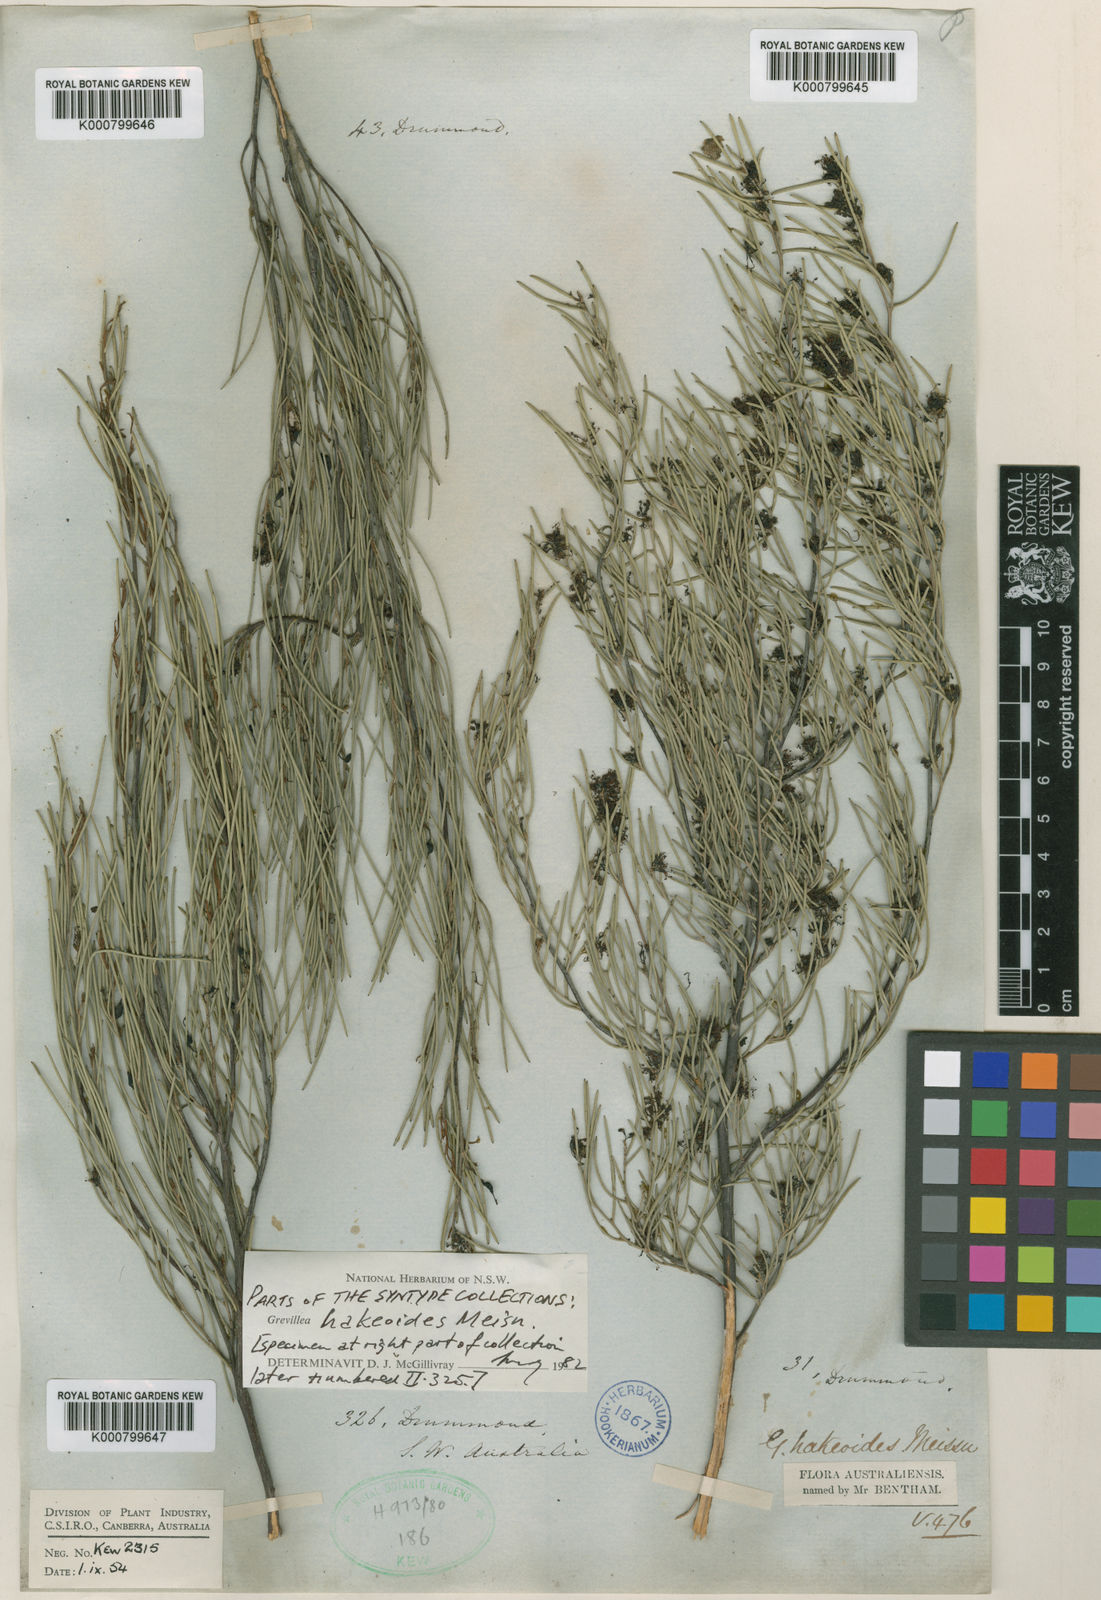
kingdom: Plantae
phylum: Tracheophyta
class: Magnoliopsida
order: Proteales
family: Proteaceae
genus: Grevillea
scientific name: Grevillea hakeoides
